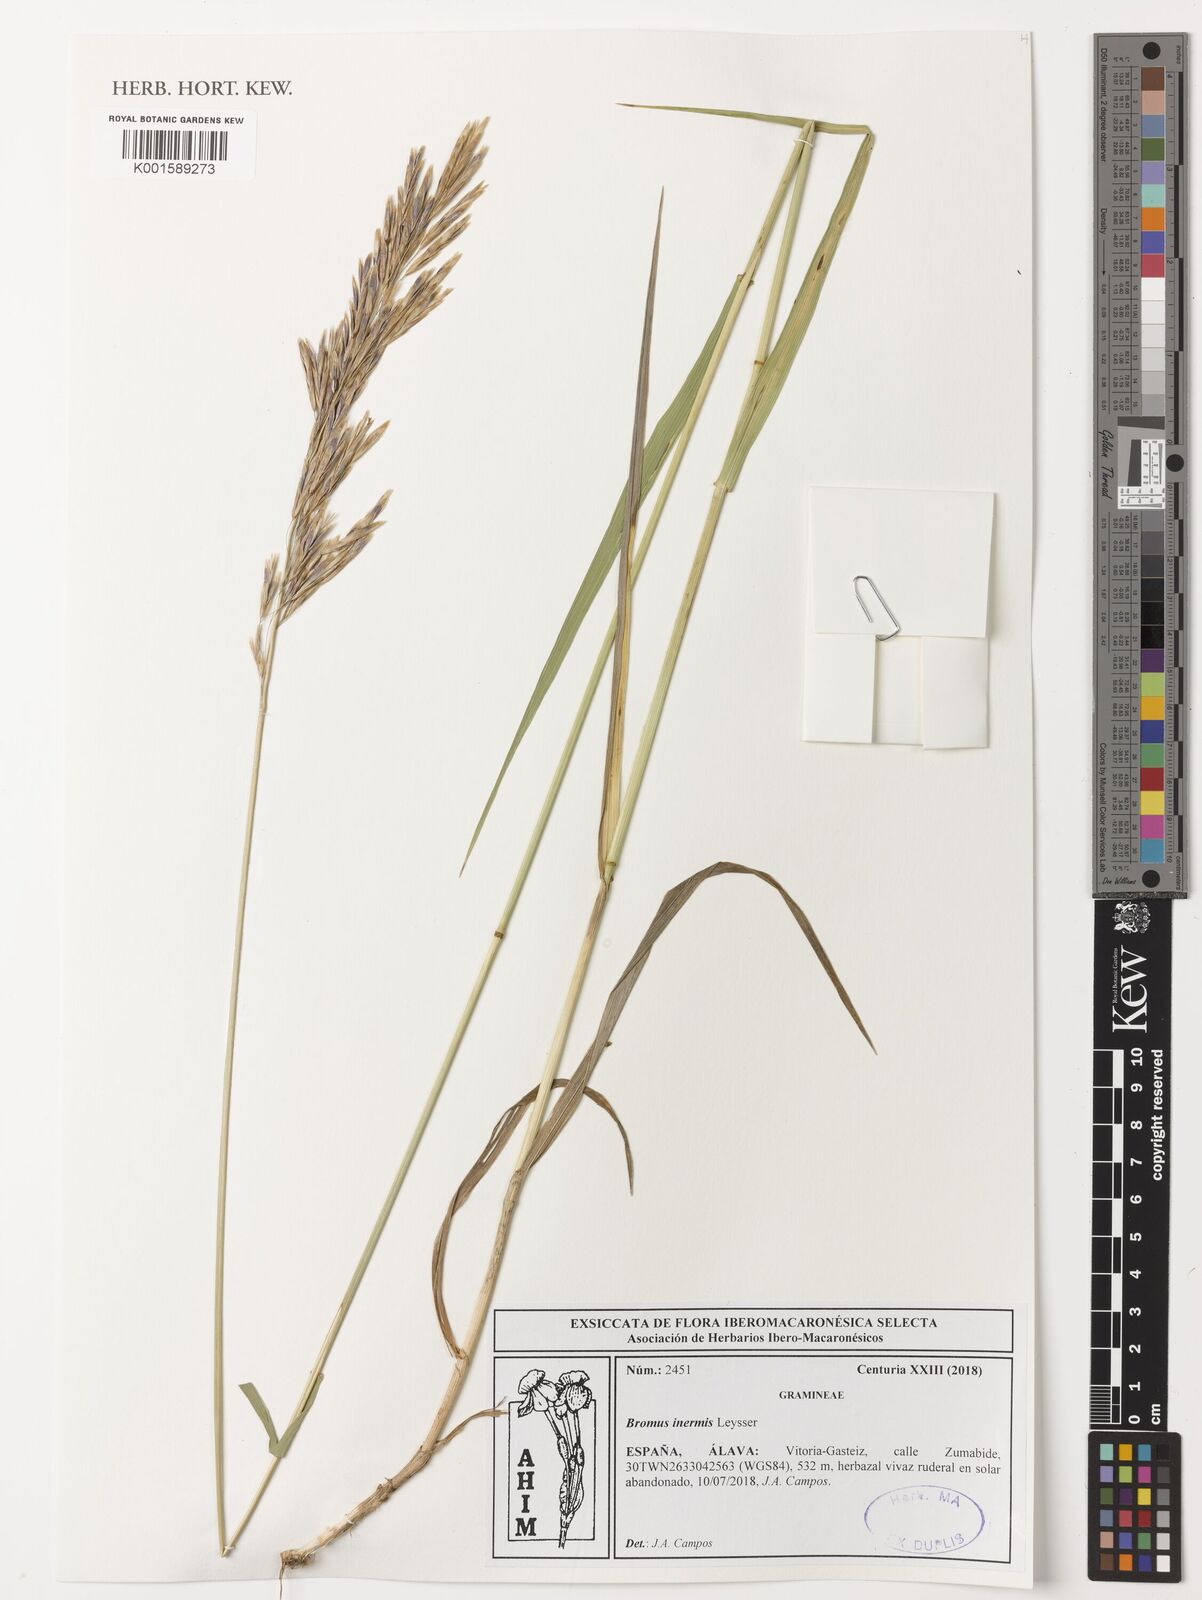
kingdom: Plantae
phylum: Tracheophyta
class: Liliopsida
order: Poales
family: Poaceae
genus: Bromus
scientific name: Bromus inermis
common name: Smooth brome
